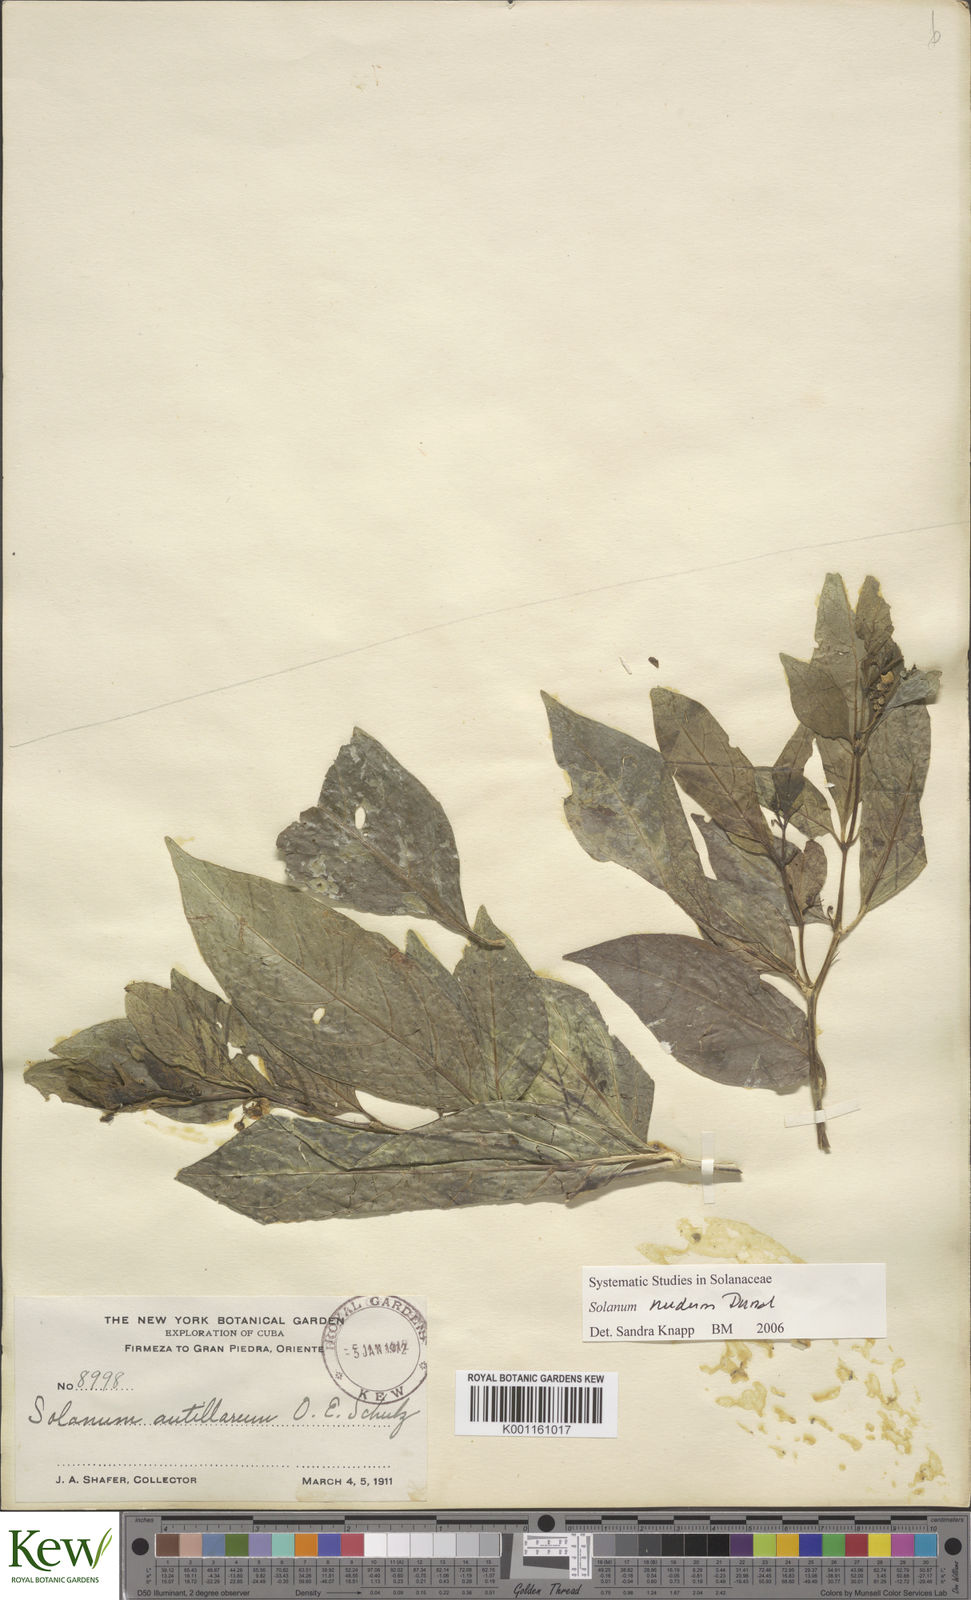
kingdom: Plantae
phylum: Tracheophyta
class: Magnoliopsida
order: Solanales
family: Solanaceae
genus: Solanum
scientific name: Solanum nudum
